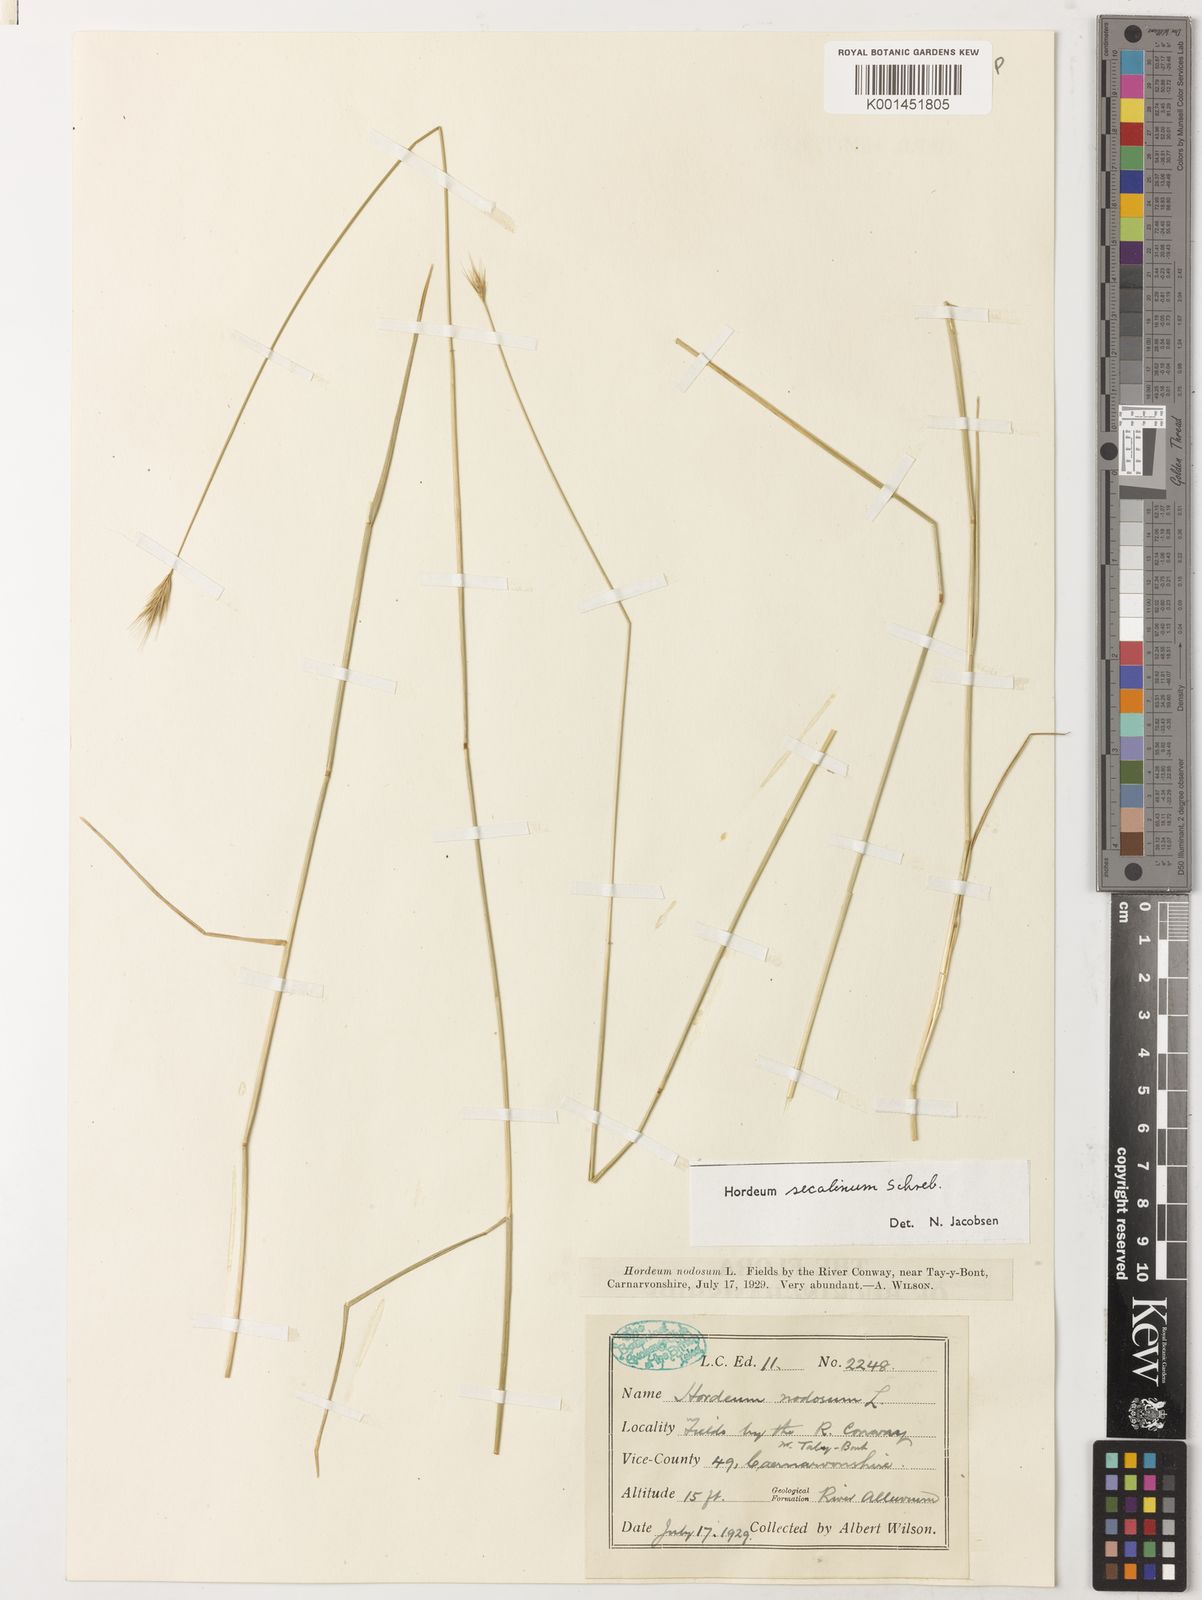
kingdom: Plantae
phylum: Tracheophyta
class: Liliopsida
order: Poales
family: Poaceae
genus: Hordeum
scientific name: Hordeum secalinum
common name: Meadow barley
